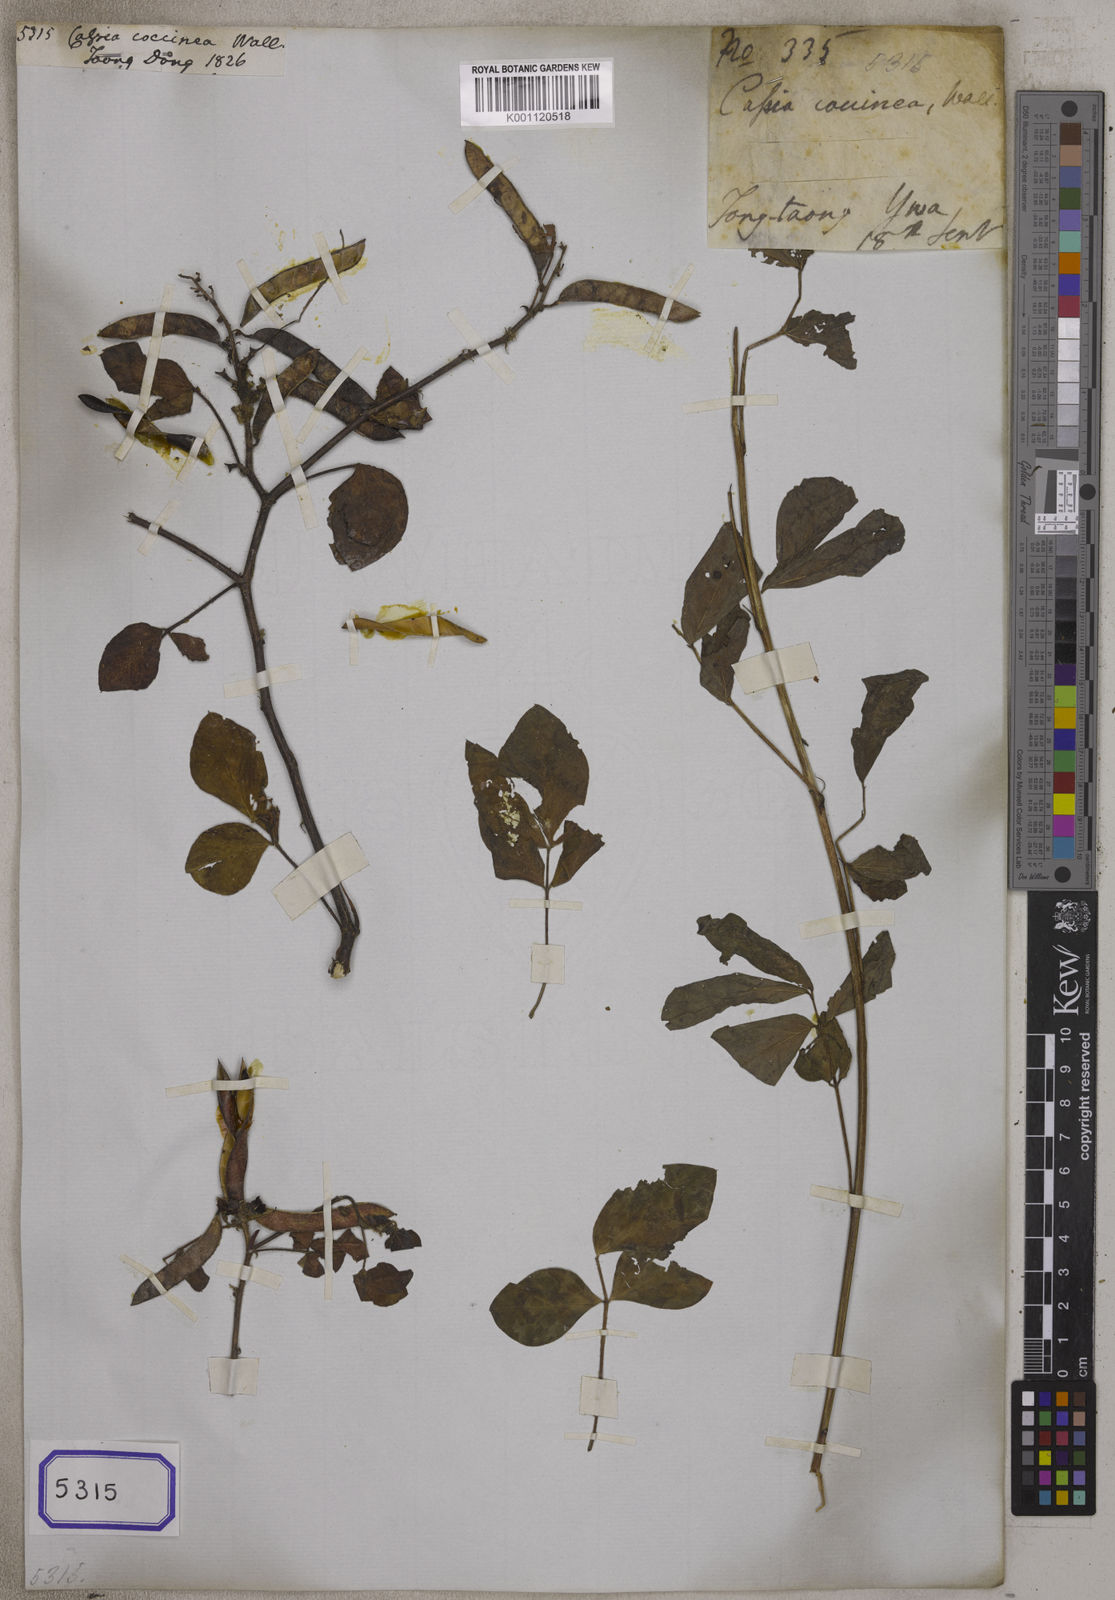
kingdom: Plantae
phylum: Tracheophyta
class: Magnoliopsida
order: Fabales
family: Fabaceae
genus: Chamaecrista
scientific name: Chamaecrista absus
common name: Tropical sensitive pea
